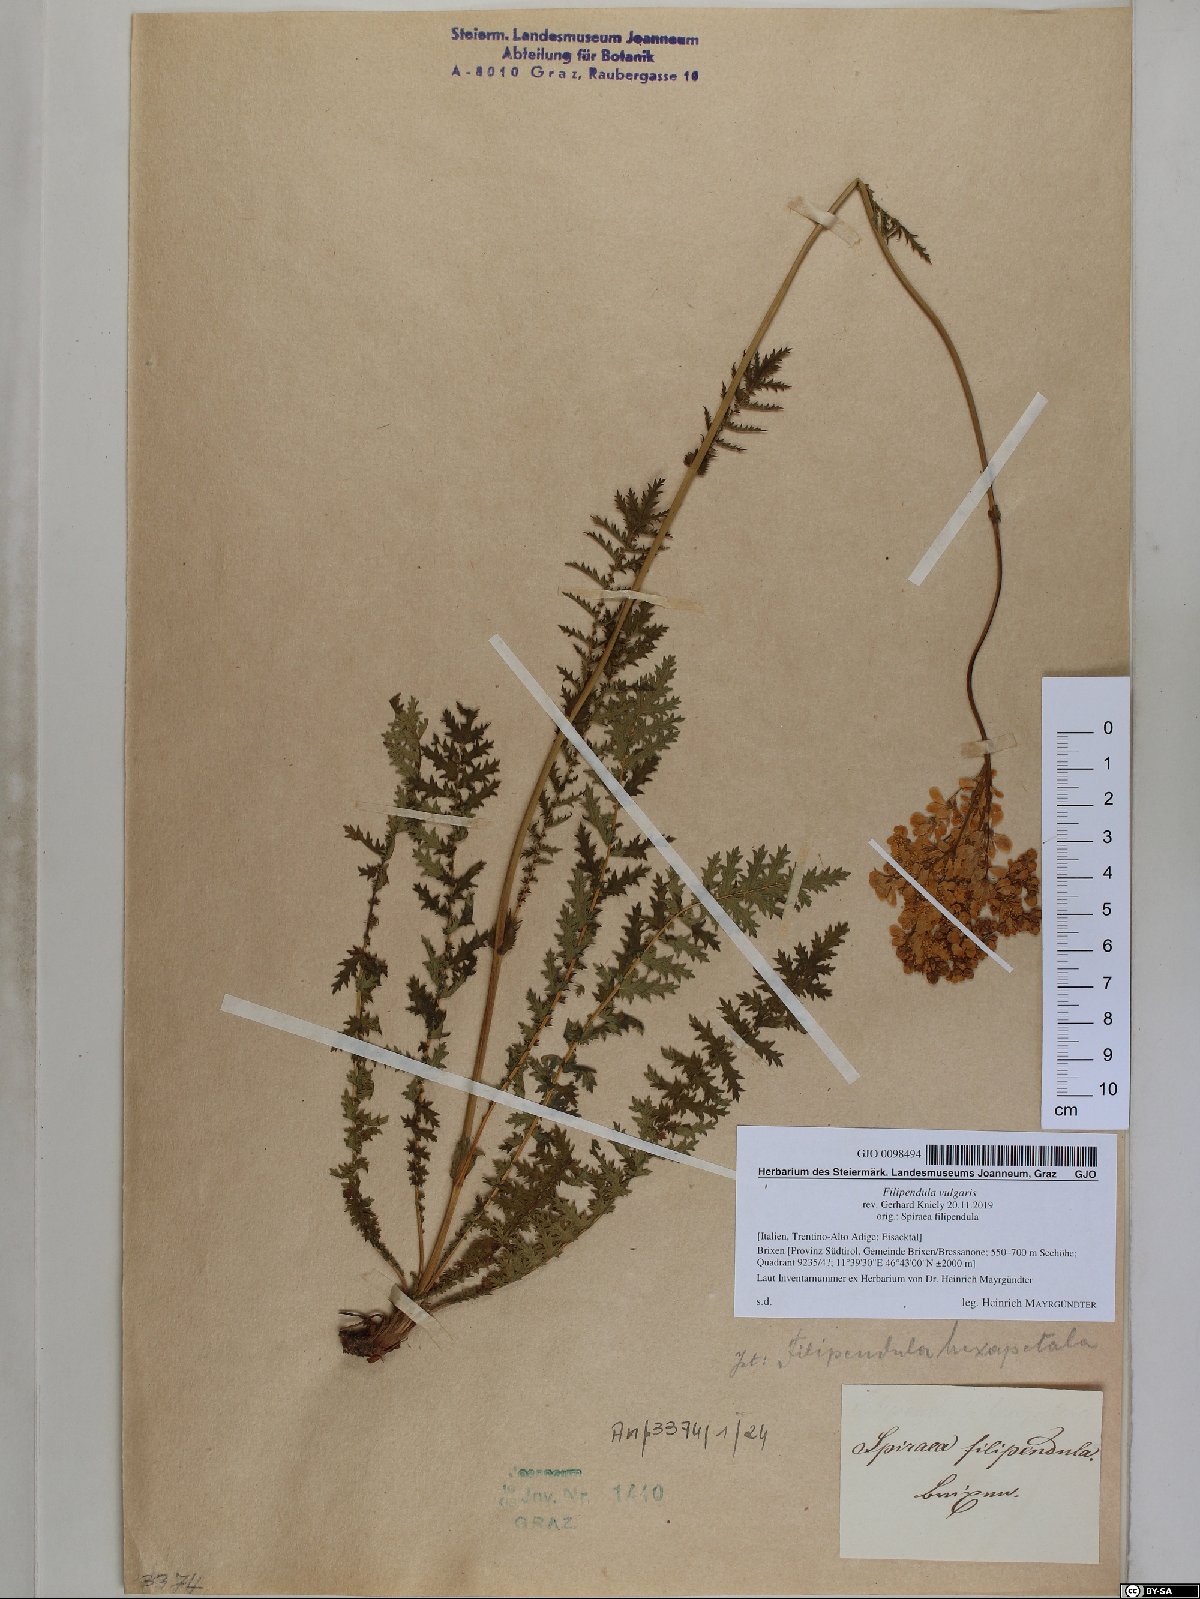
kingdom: Plantae
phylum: Tracheophyta
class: Magnoliopsida
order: Rosales
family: Rosaceae
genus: Filipendula
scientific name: Filipendula vulgaris
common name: Dropwort
